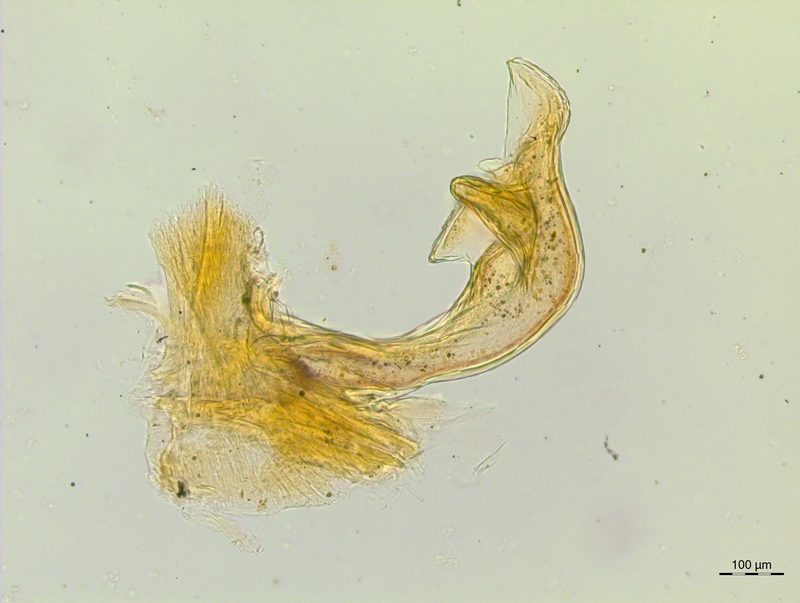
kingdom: Animalia
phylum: Arthropoda
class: Diplopoda
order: Chordeumatida
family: Craspedosomatidae
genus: Craspedosoma
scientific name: Craspedosoma rawlinsii
